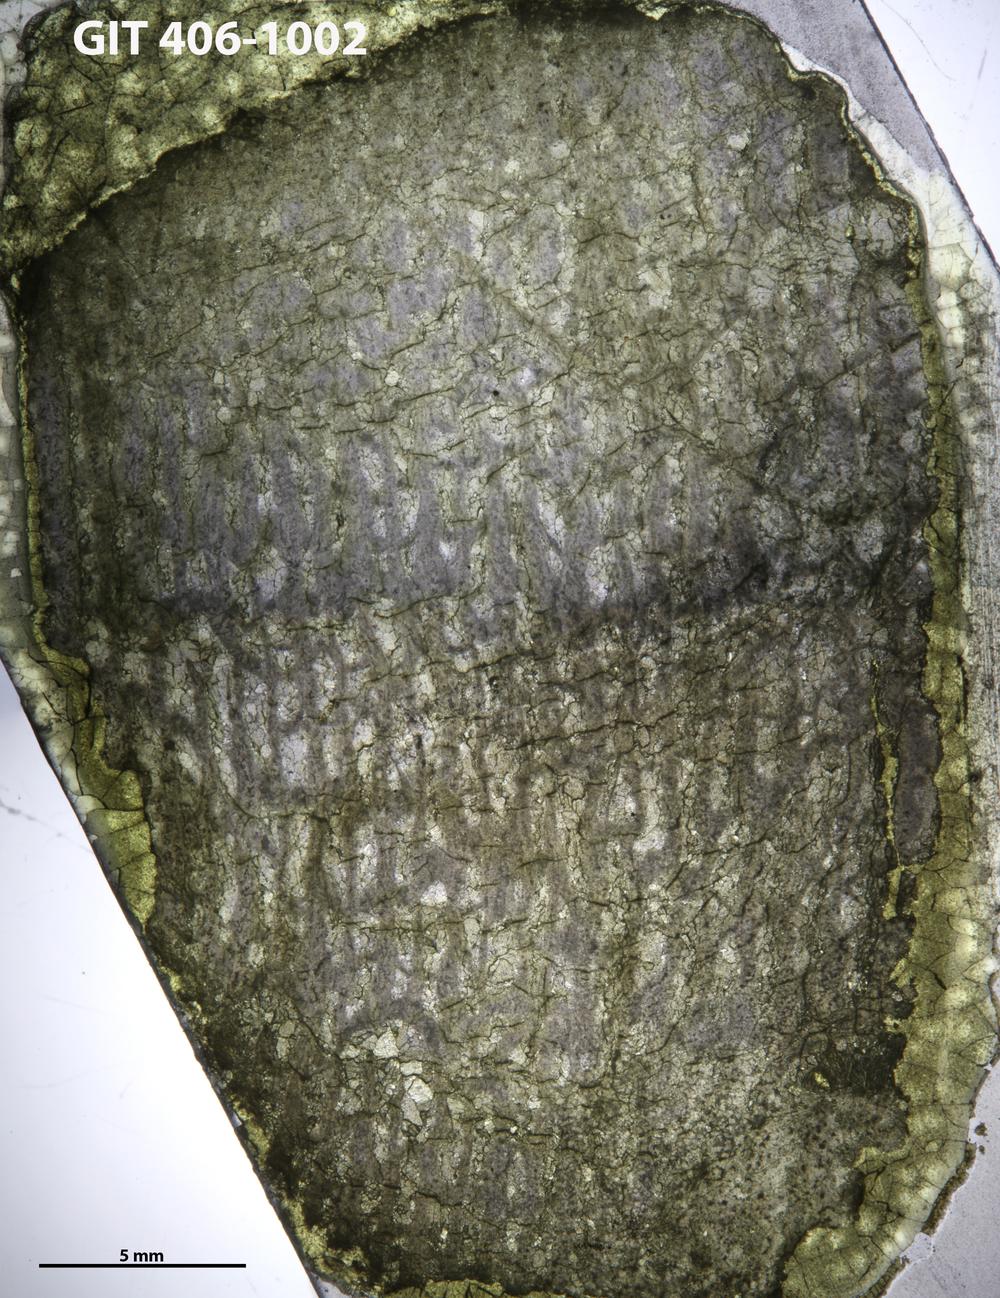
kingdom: Animalia
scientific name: Animalia
